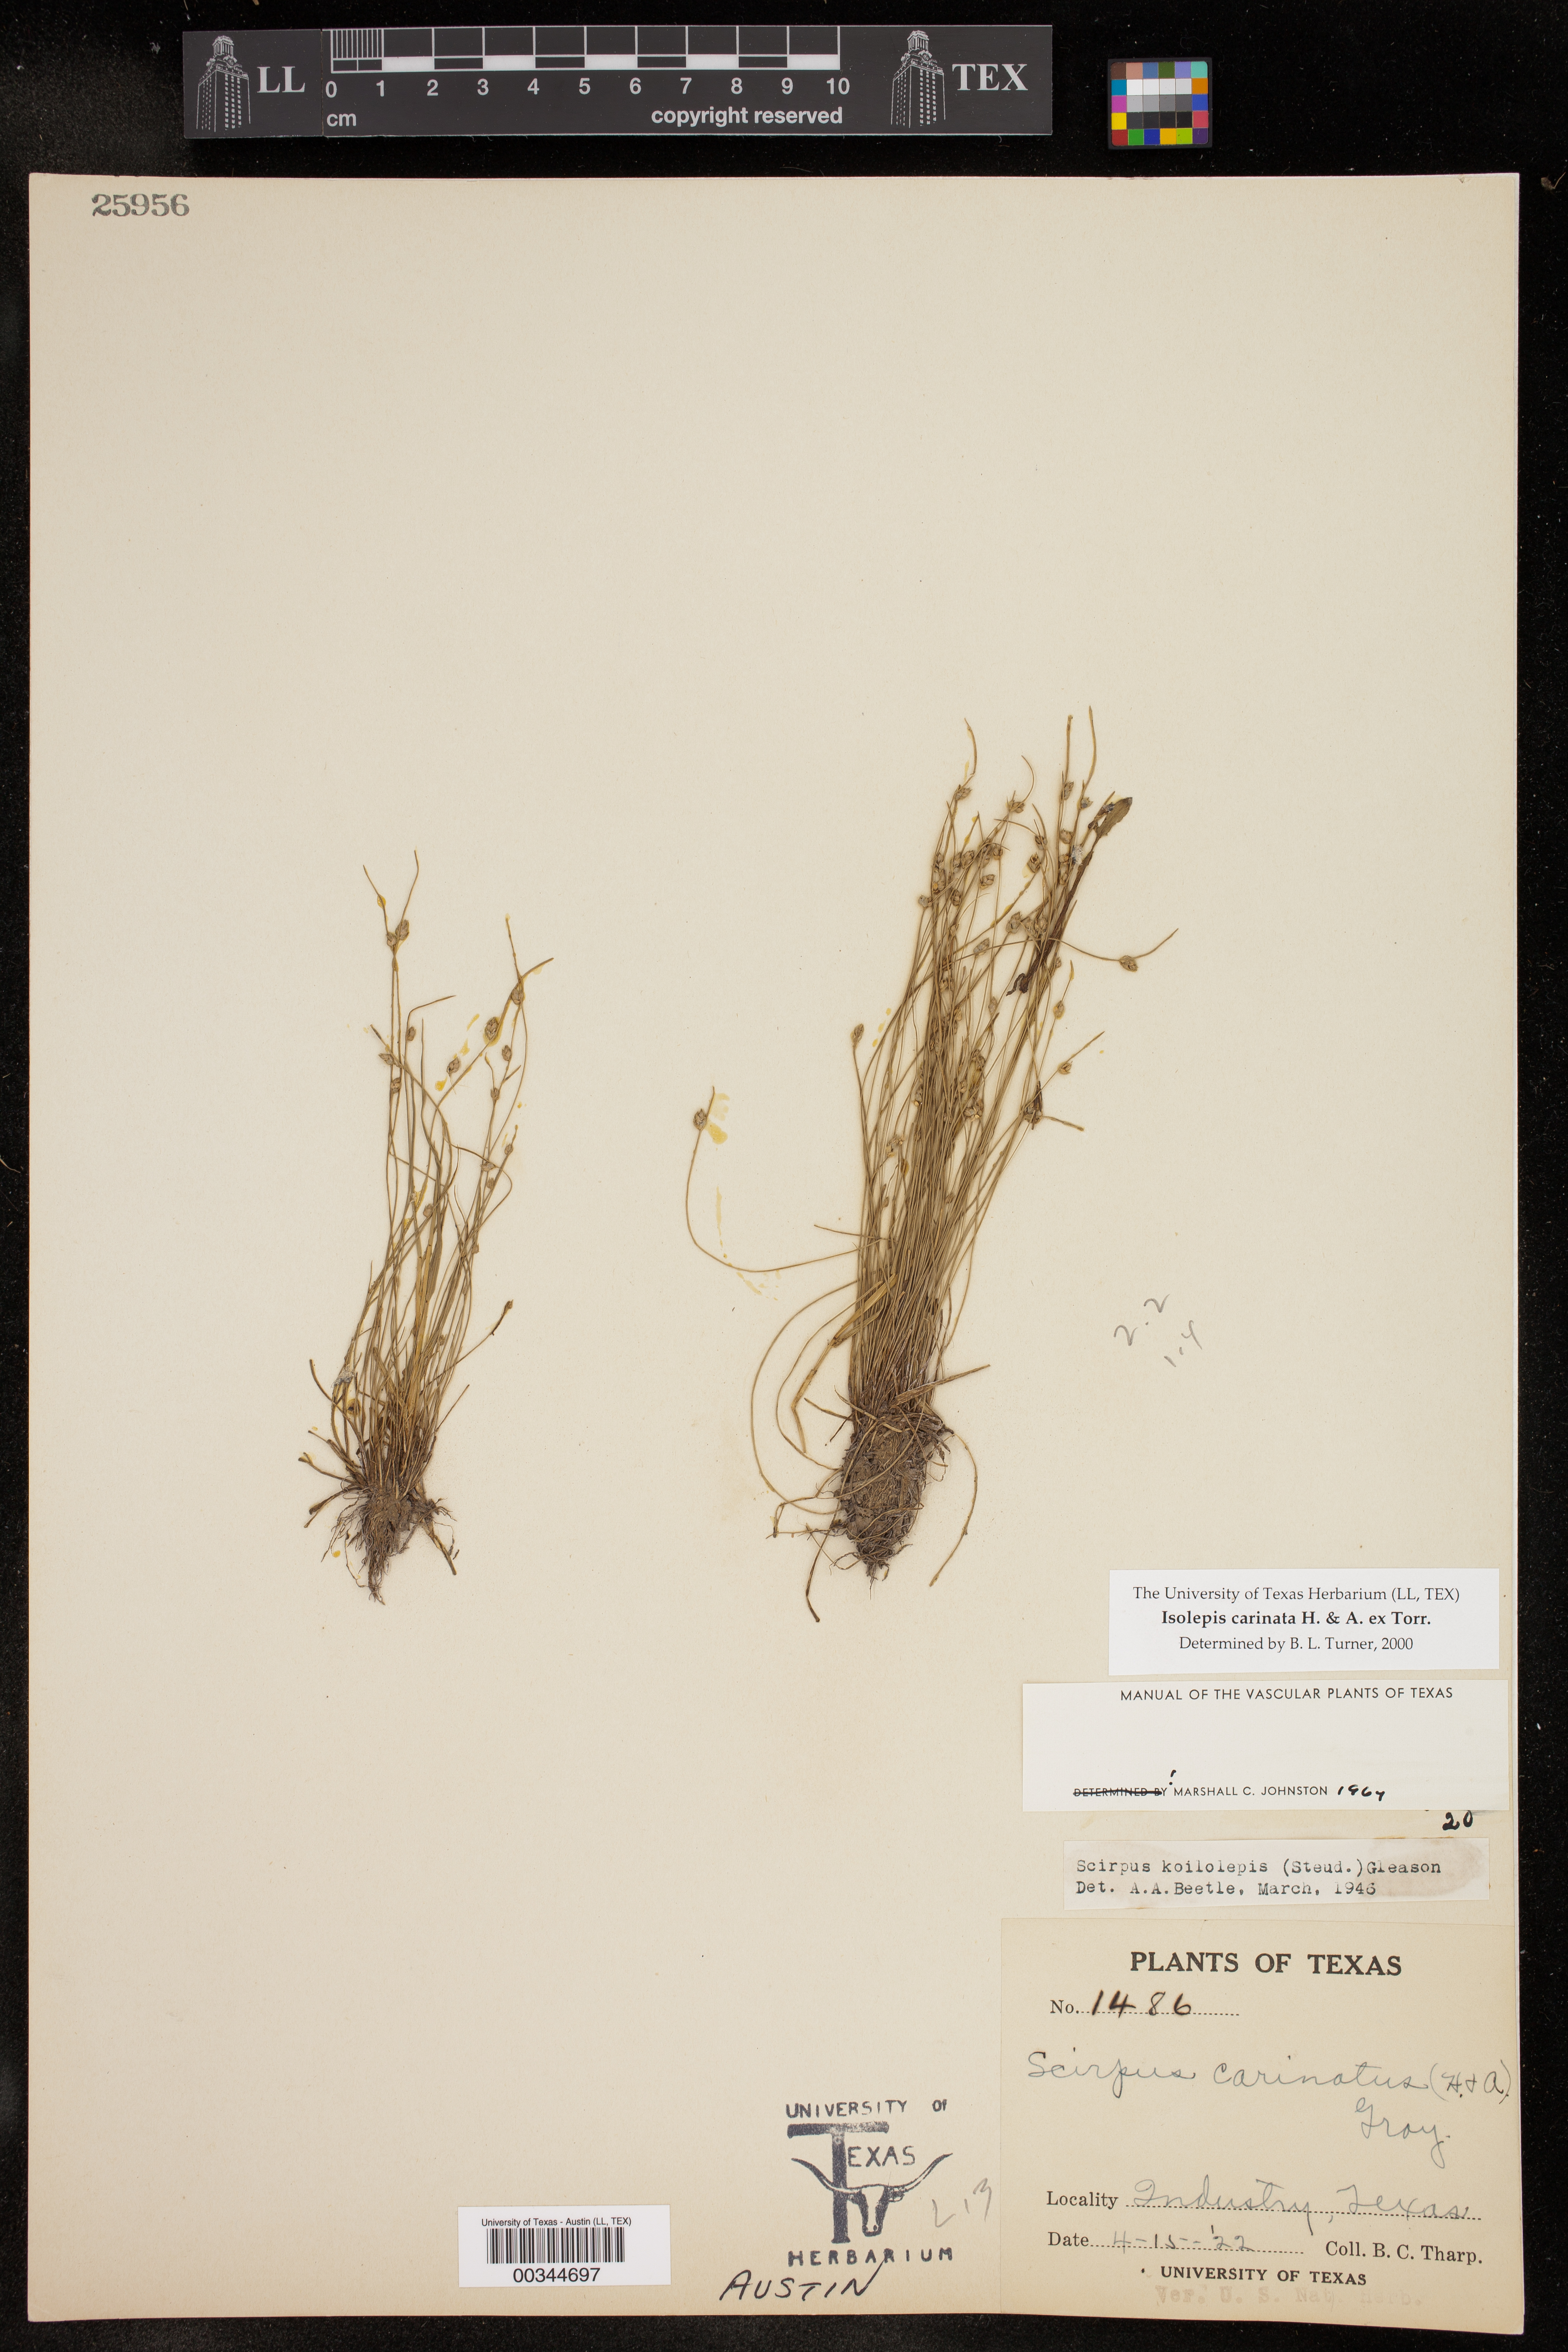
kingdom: Plantae
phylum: Tracheophyta
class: Liliopsida
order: Poales
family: Cyperaceae
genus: Isolepis
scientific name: Isolepis carinata
